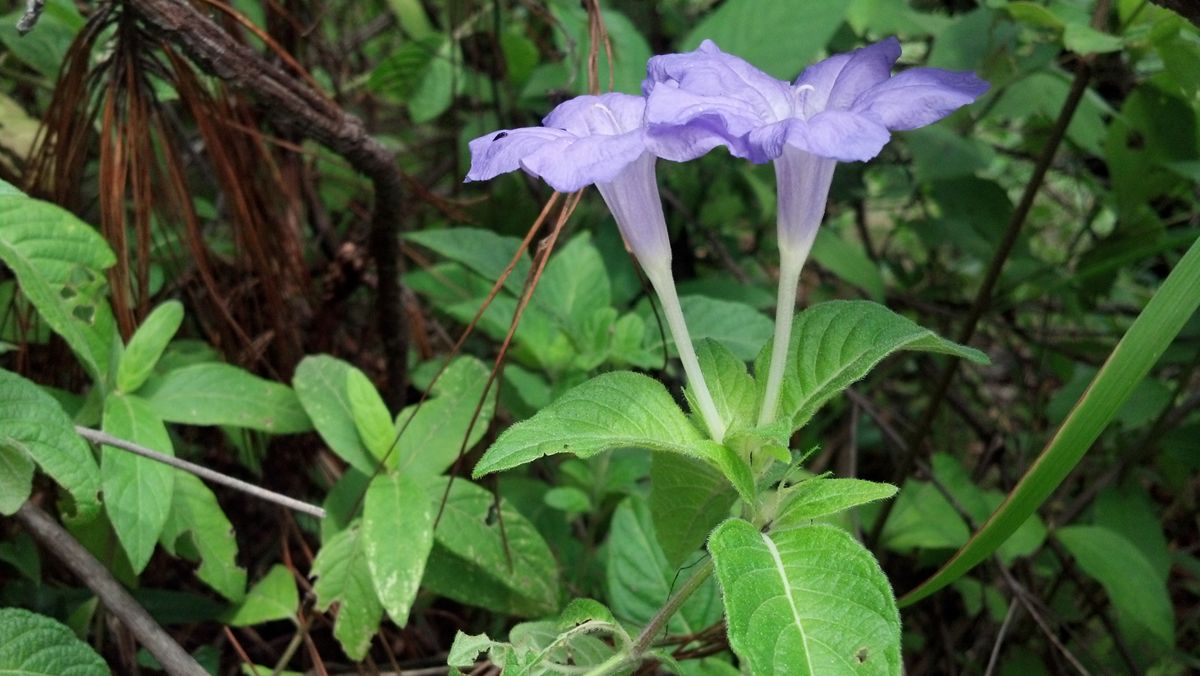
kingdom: Plantae
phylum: Tracheophyta
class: Magnoliopsida
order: Lamiales
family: Acanthaceae
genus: Ruellia
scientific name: Ruellia hookeriana
